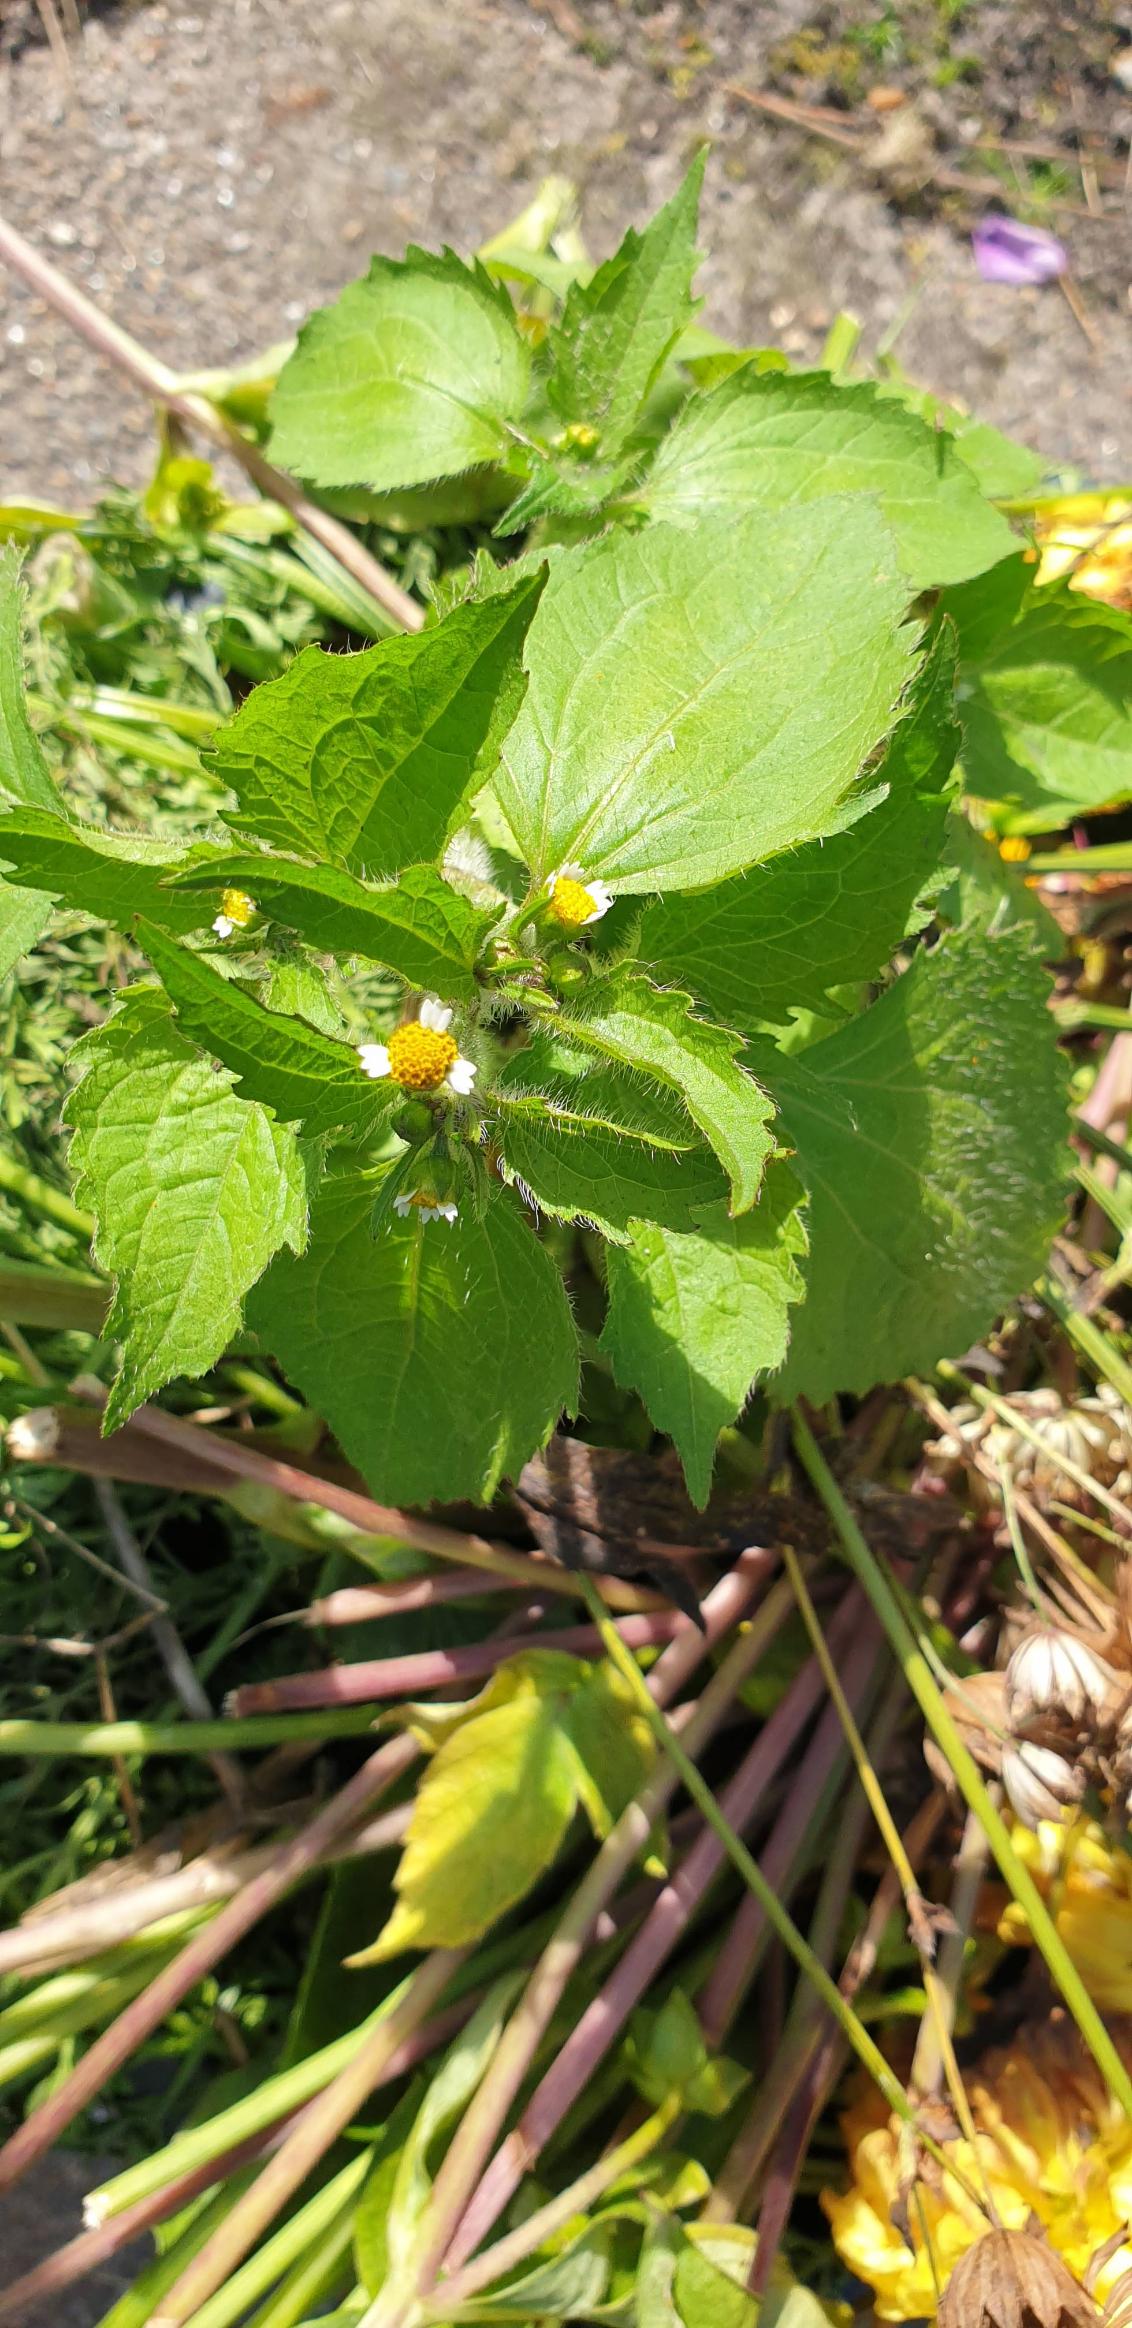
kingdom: Plantae
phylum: Tracheophyta
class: Magnoliopsida
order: Asterales
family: Asteraceae
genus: Galinsoga
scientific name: Galinsoga quadriradiata
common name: Kirtel-kortstråle
